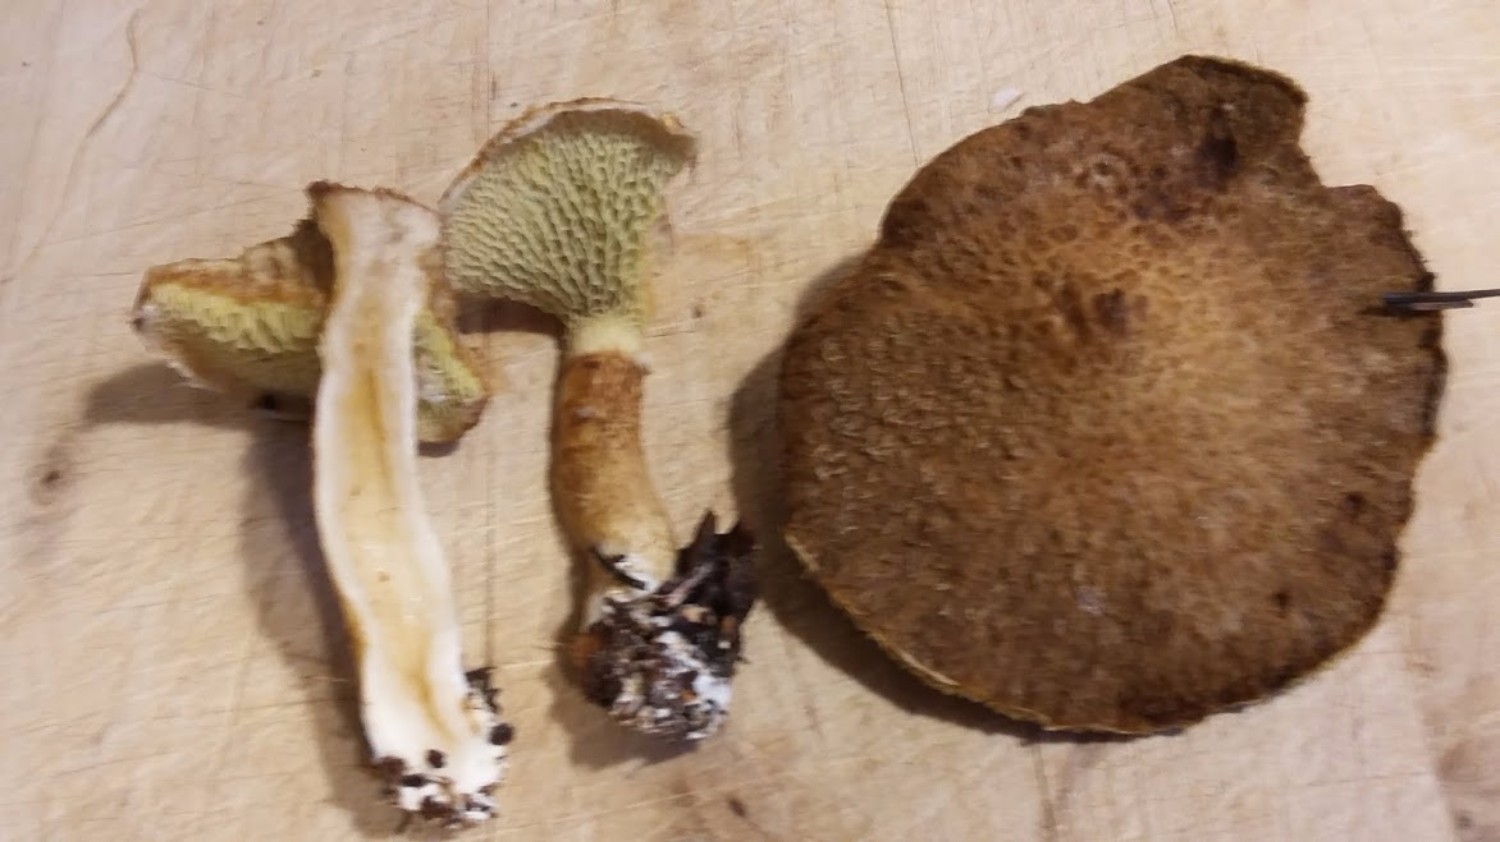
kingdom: Fungi
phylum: Basidiomycota
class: Agaricomycetes
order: Boletales
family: Suillaceae
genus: Suillus
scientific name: Suillus cavipes
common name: hulstokket slimrørhat
